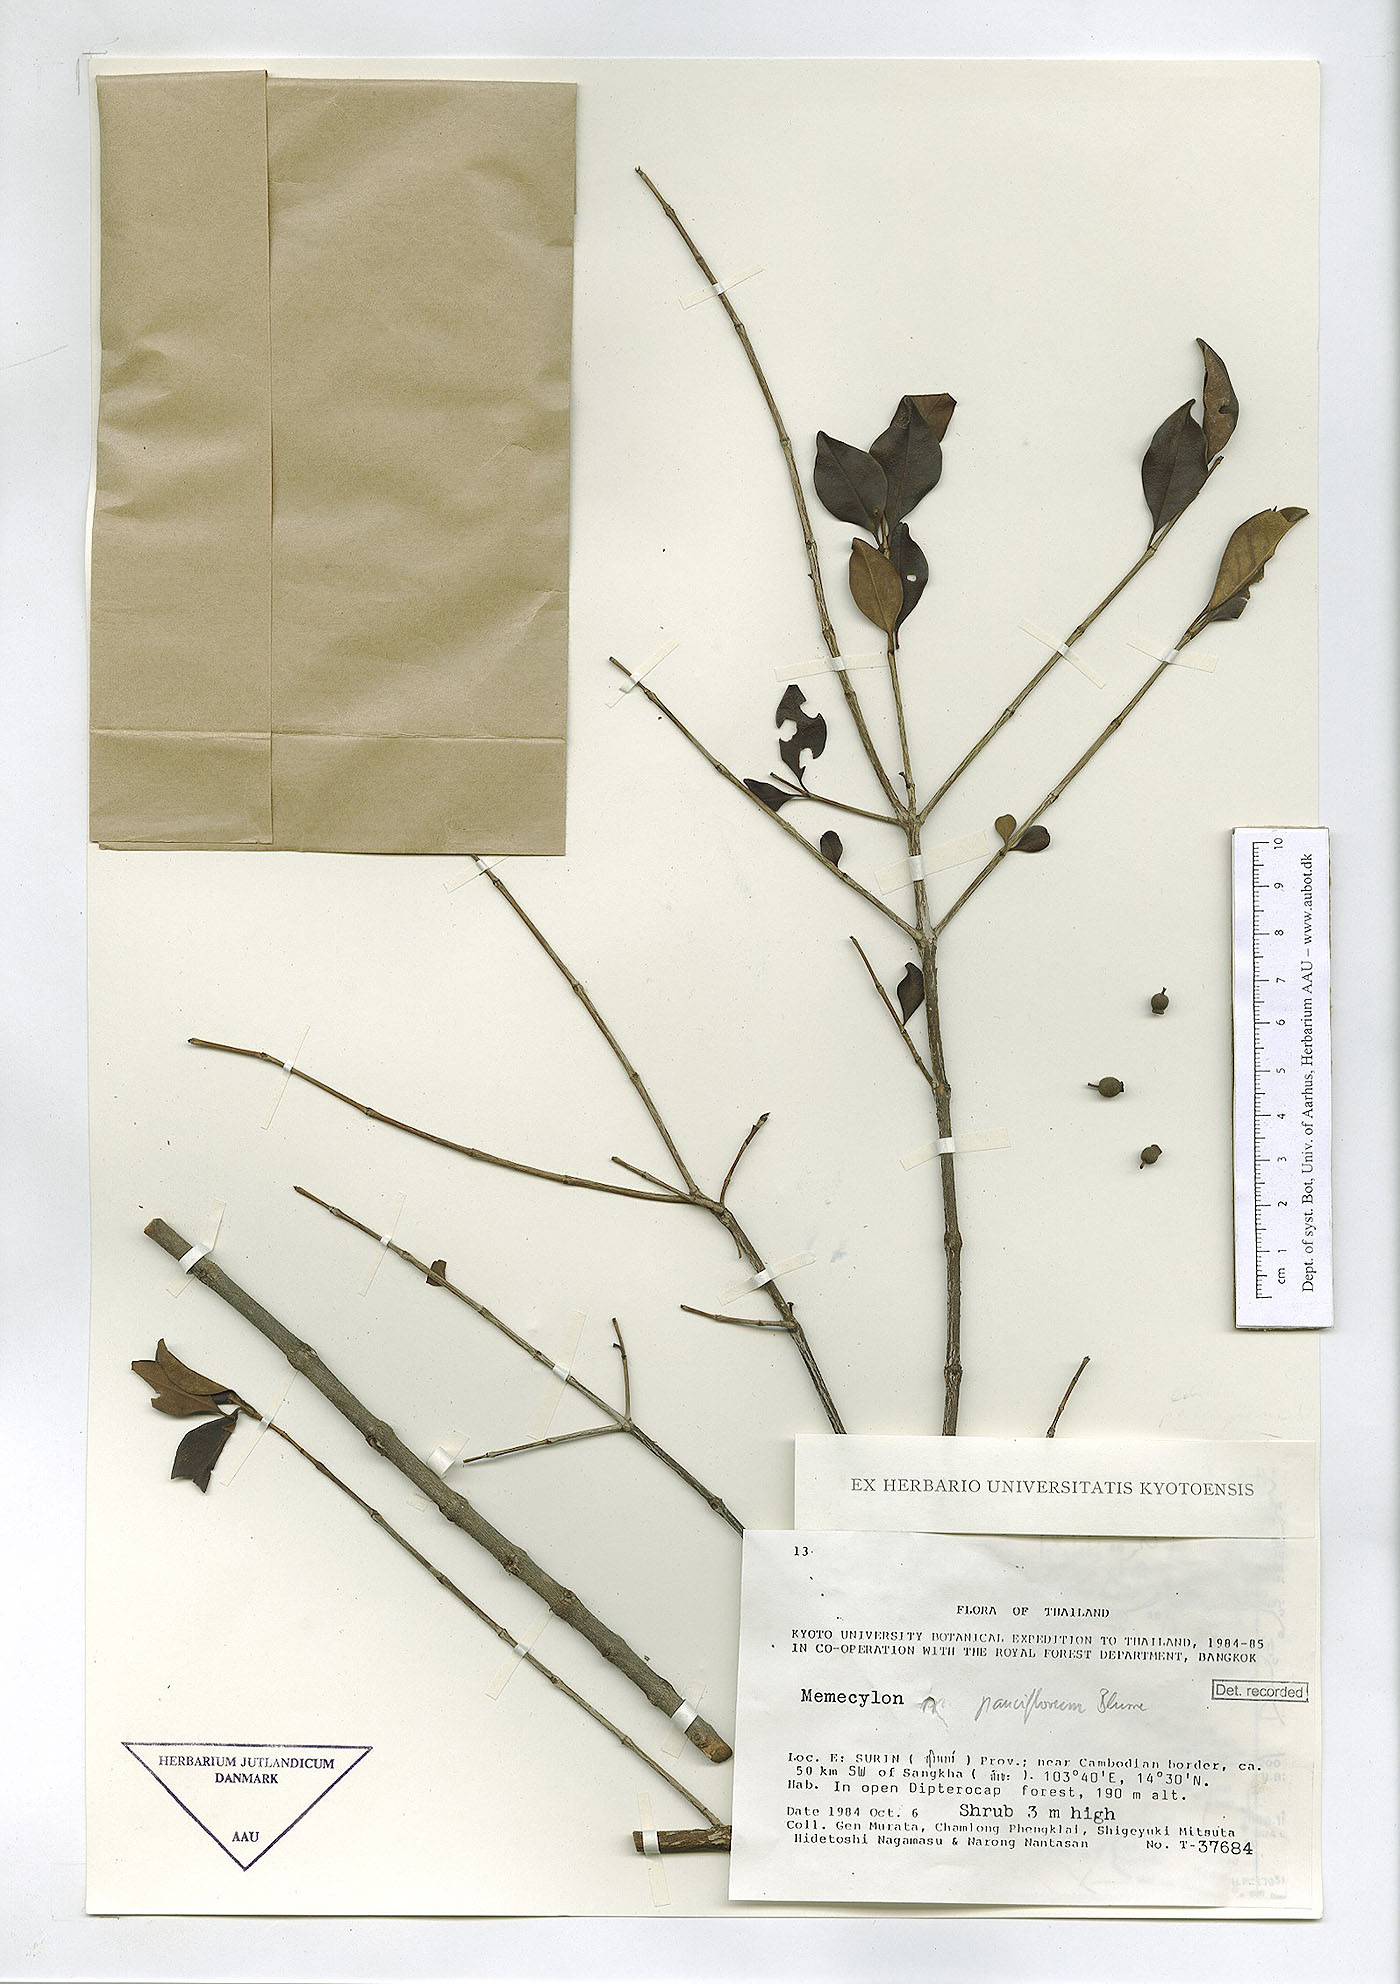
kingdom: Plantae
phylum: Tracheophyta
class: Magnoliopsida
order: Myrtales
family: Melastomataceae
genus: Memecylon
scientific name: Memecylon scutellatum
